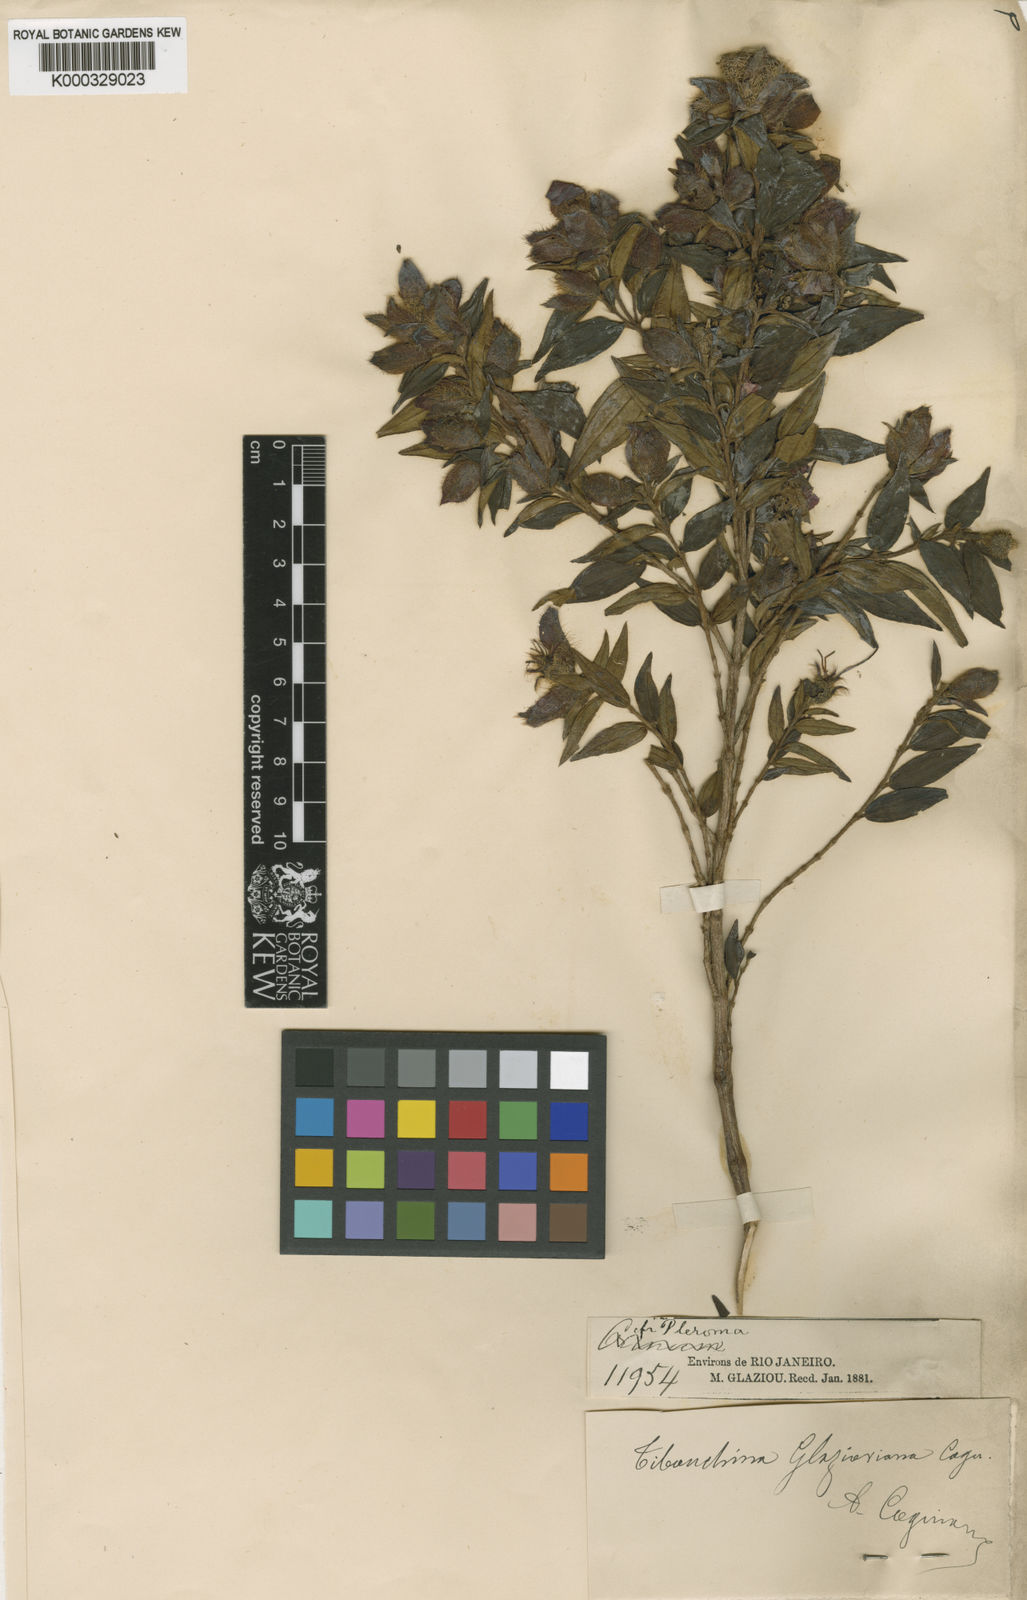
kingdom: Plantae
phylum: Tracheophyta
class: Magnoliopsida
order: Myrtales
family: Melastomataceae
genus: Pleroma
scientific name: Pleroma dubium
